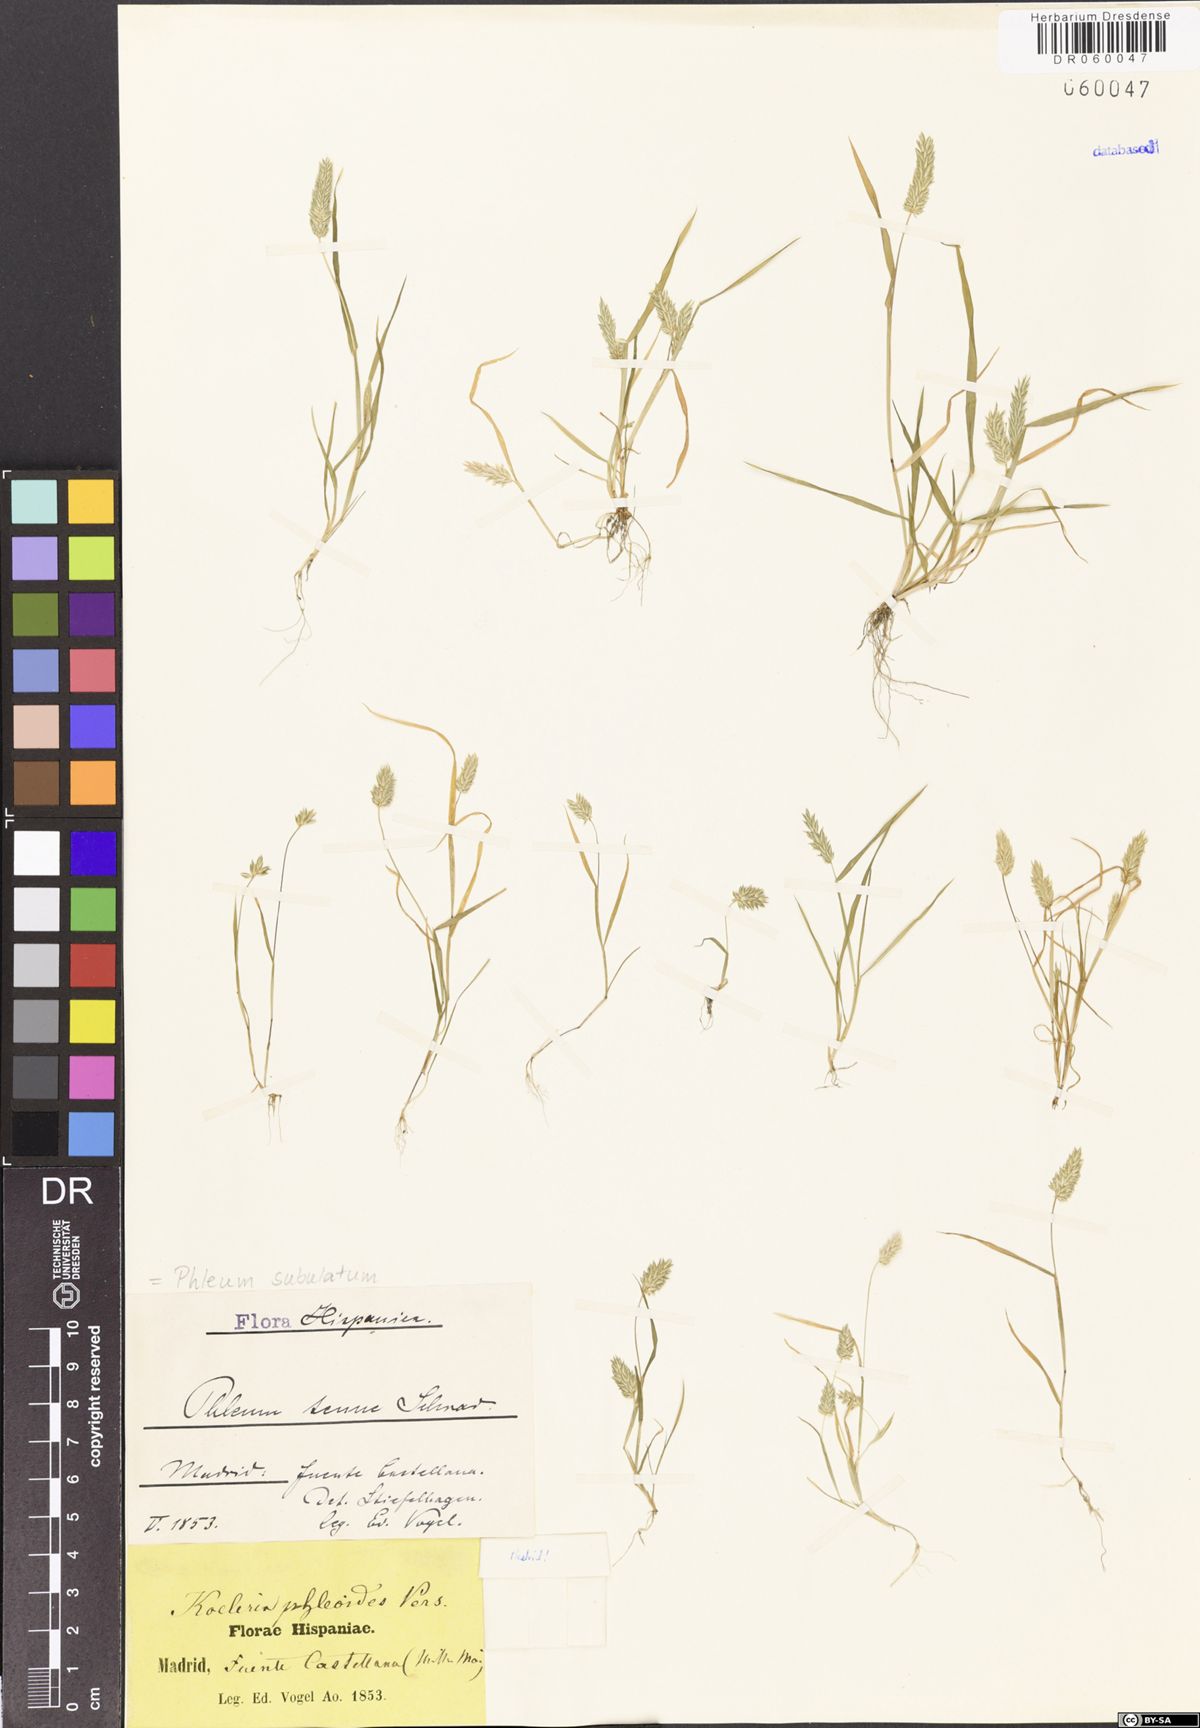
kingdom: Plantae
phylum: Tracheophyta
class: Liliopsida
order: Poales
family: Poaceae
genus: Phleum
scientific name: Phleum subulatum
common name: Italian timothy
